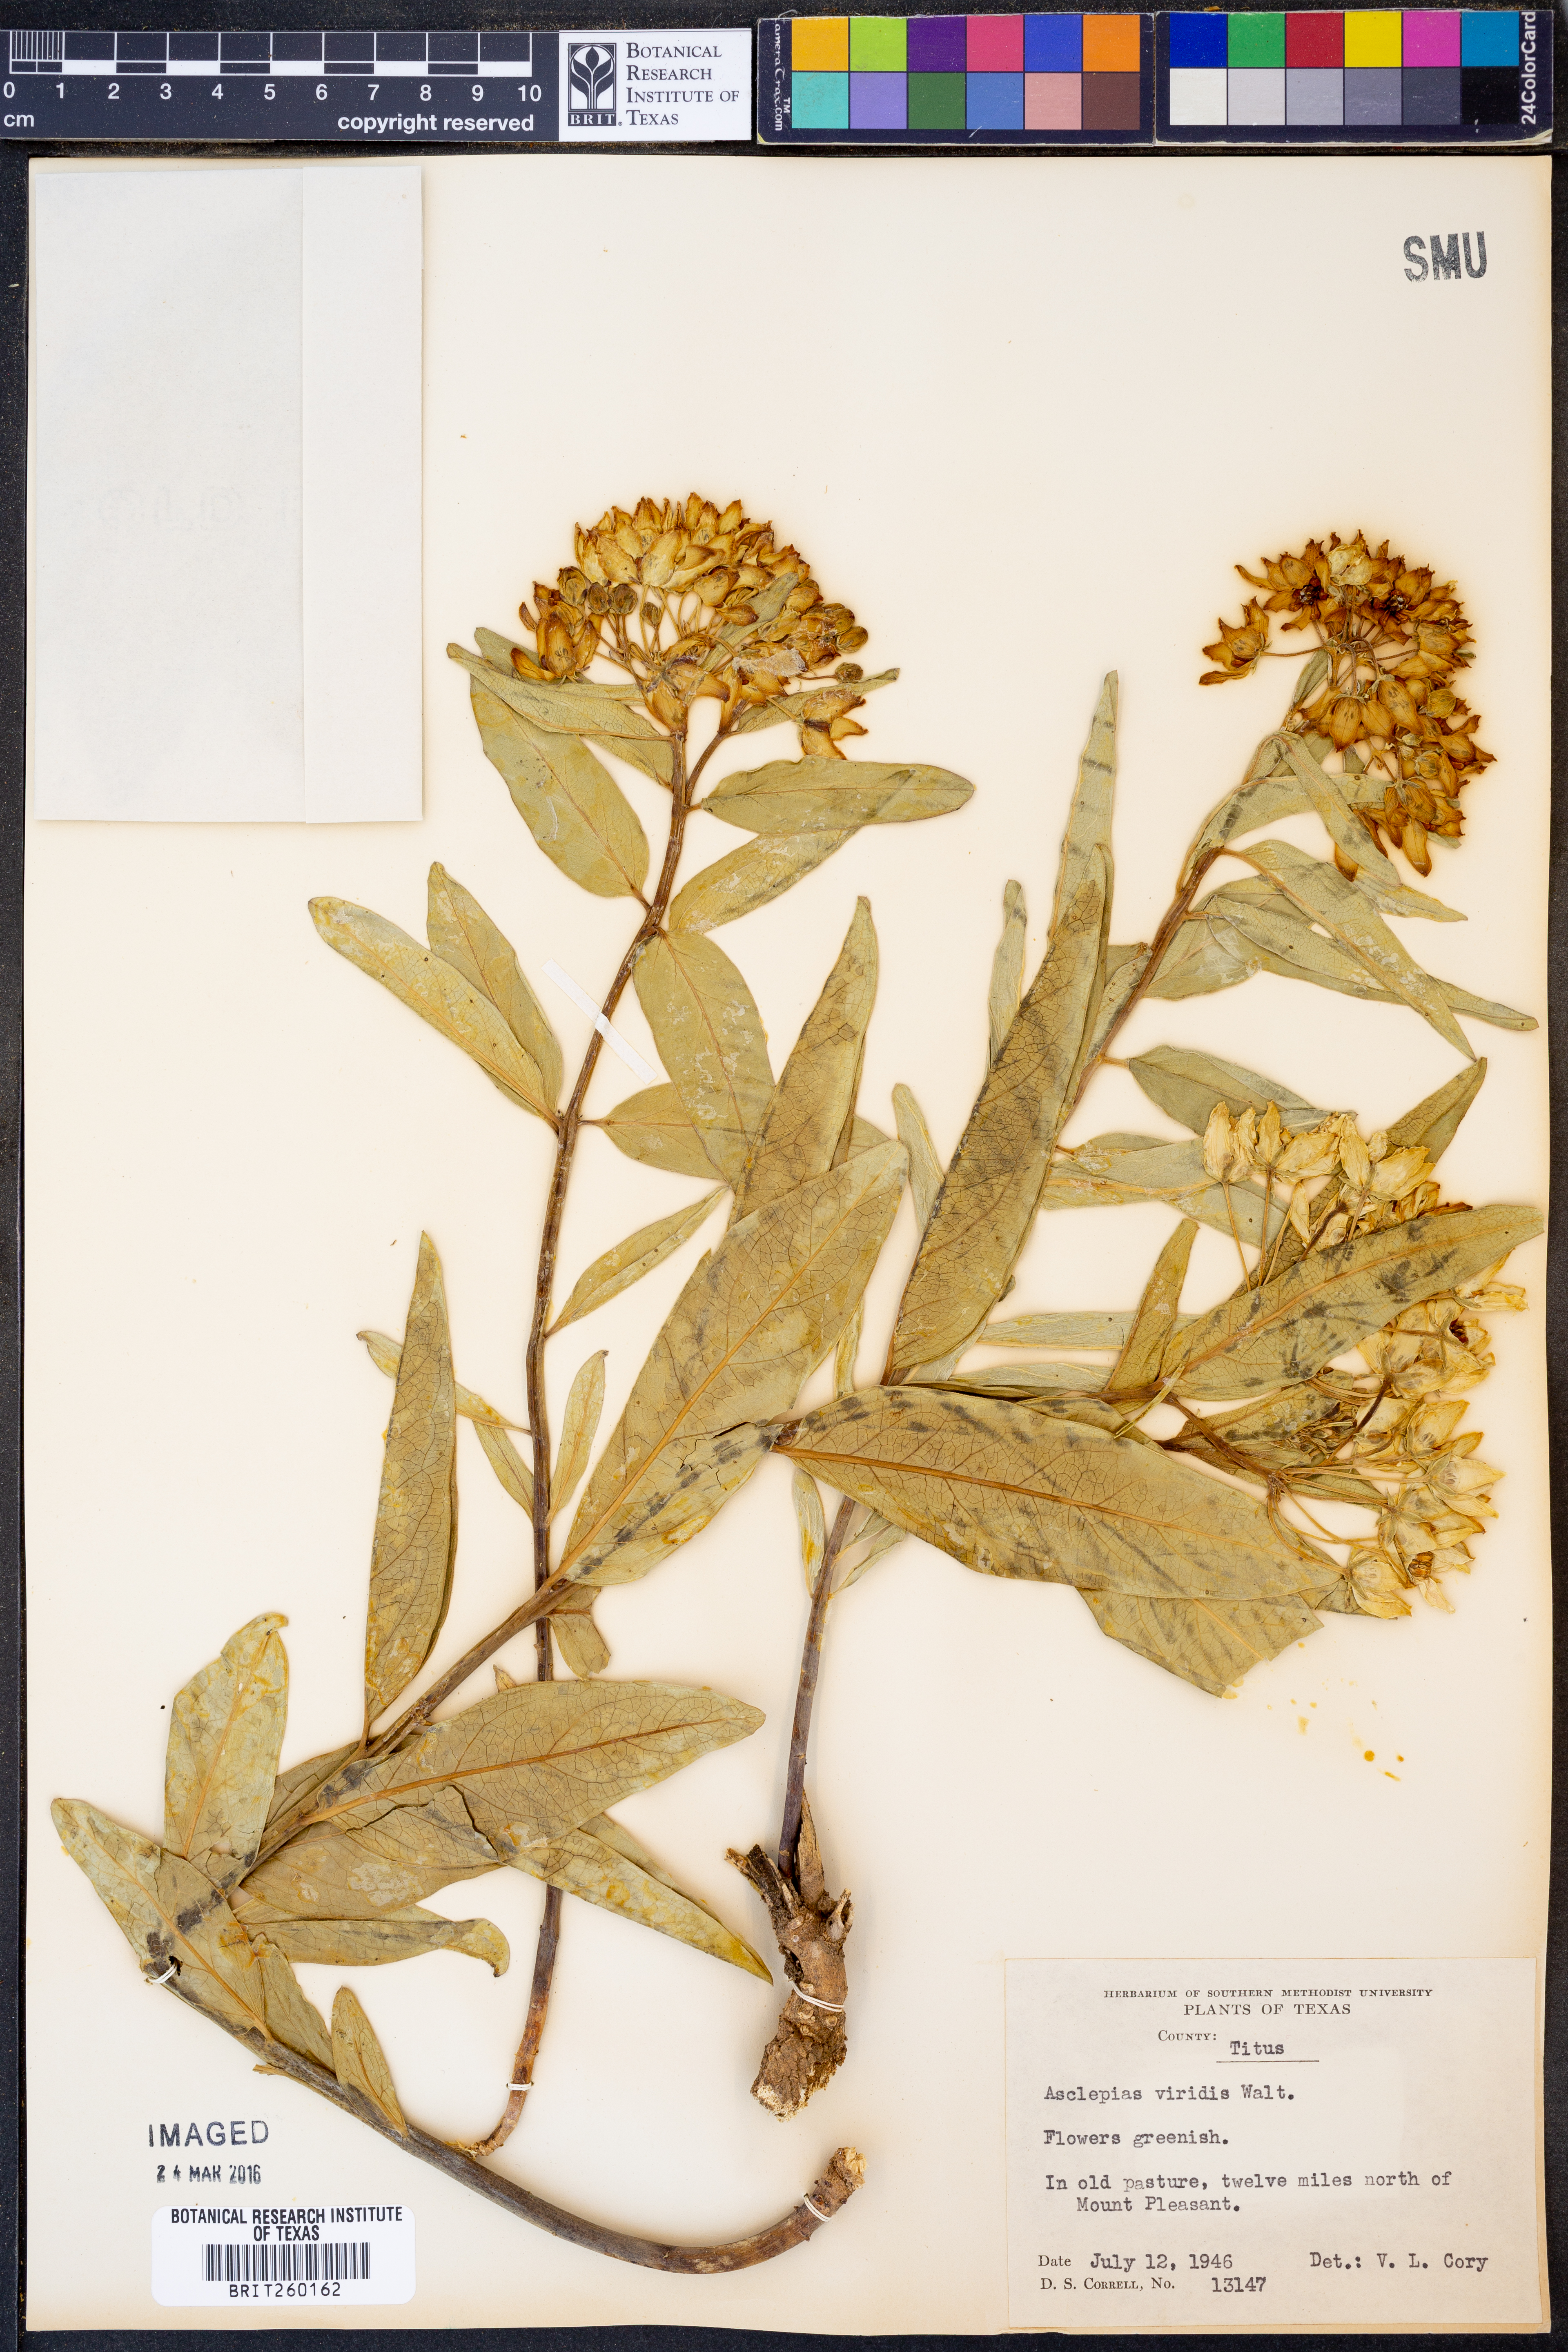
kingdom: Plantae
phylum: Tracheophyta
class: Magnoliopsida
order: Gentianales
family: Apocynaceae
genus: Asclepias
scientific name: Asclepias viridis
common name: Antelope-horns
